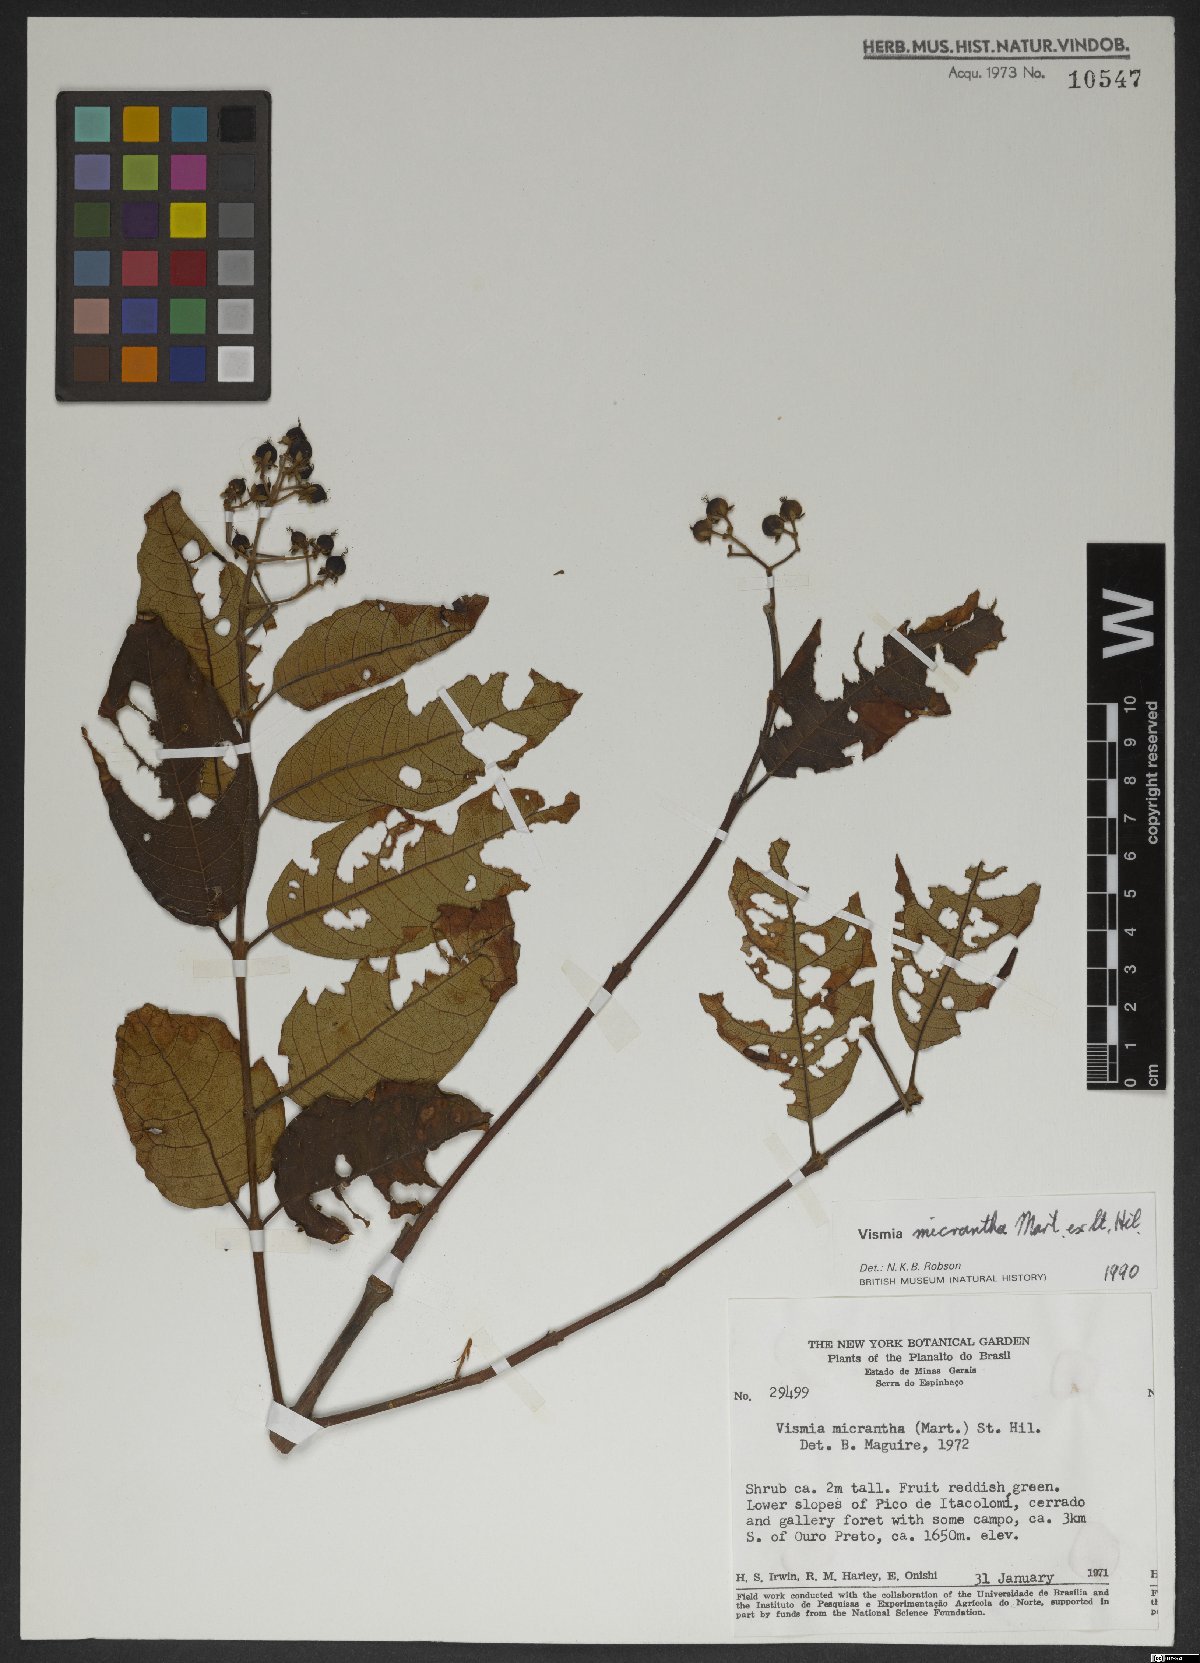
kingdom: Plantae
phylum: Tracheophyta
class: Magnoliopsida
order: Malpighiales
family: Hypericaceae
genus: Vismia
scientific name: Vismia micrantha
